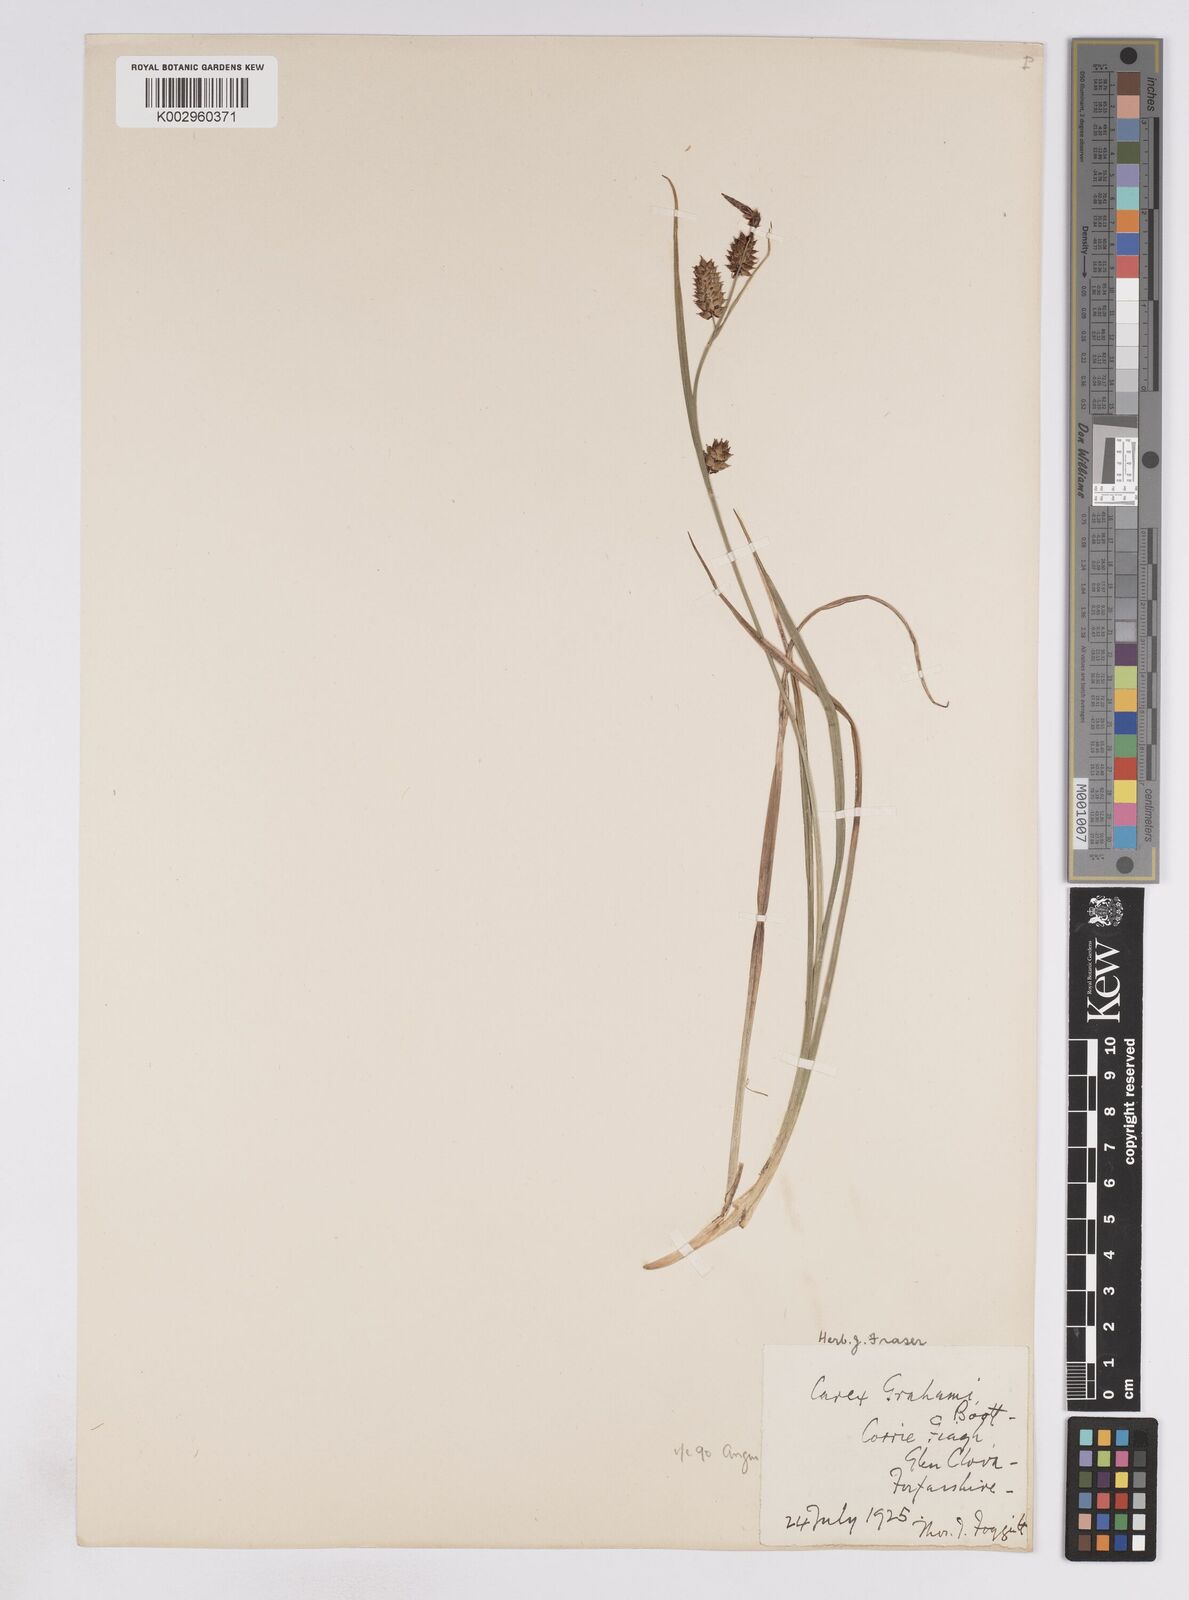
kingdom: Plantae
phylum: Tracheophyta
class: Liliopsida
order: Poales
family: Cyperaceae
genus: Carex
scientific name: Carex vesicaria
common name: Bladder-sedge
